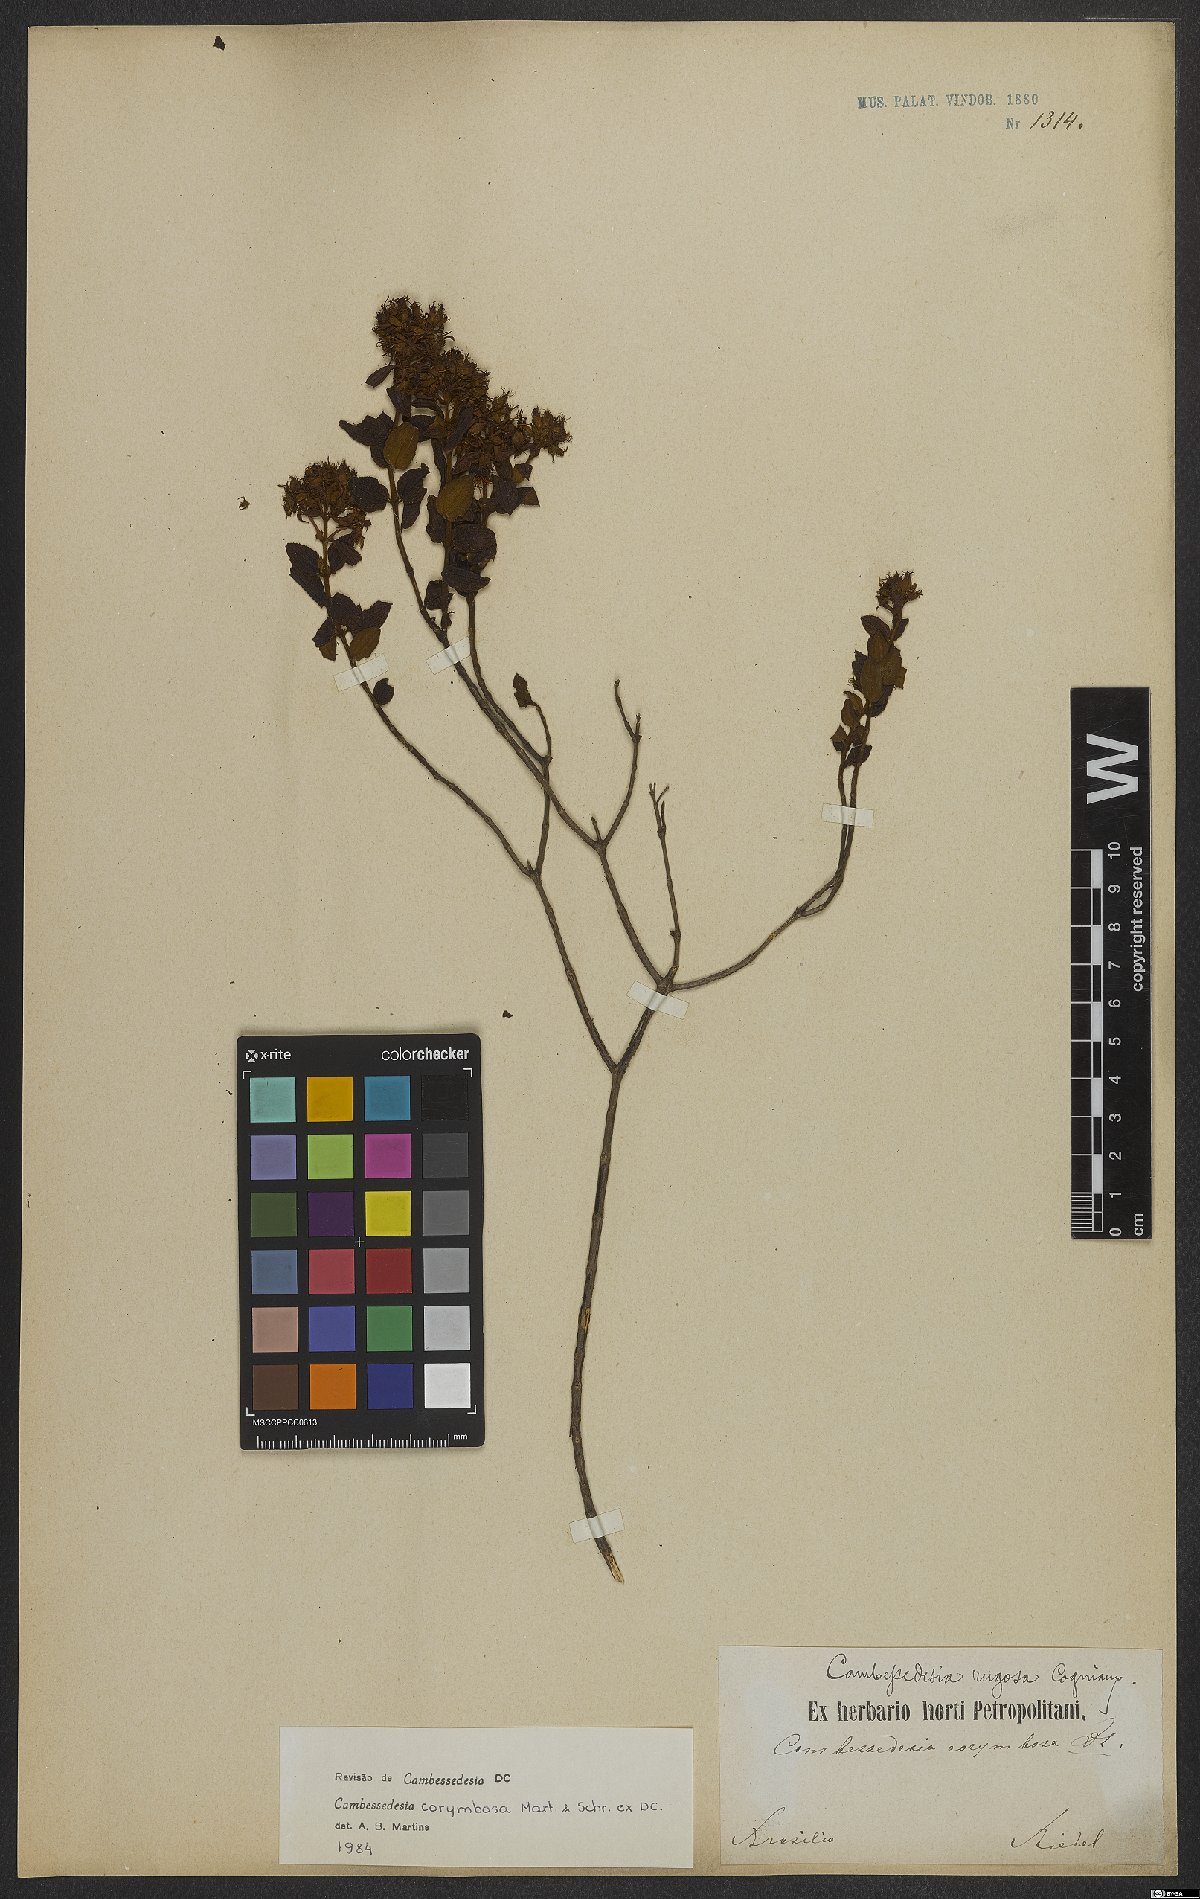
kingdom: Plantae
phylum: Tracheophyta
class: Magnoliopsida
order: Myrtales
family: Melastomataceae
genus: Cambessedesia
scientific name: Cambessedesia corymbosa
